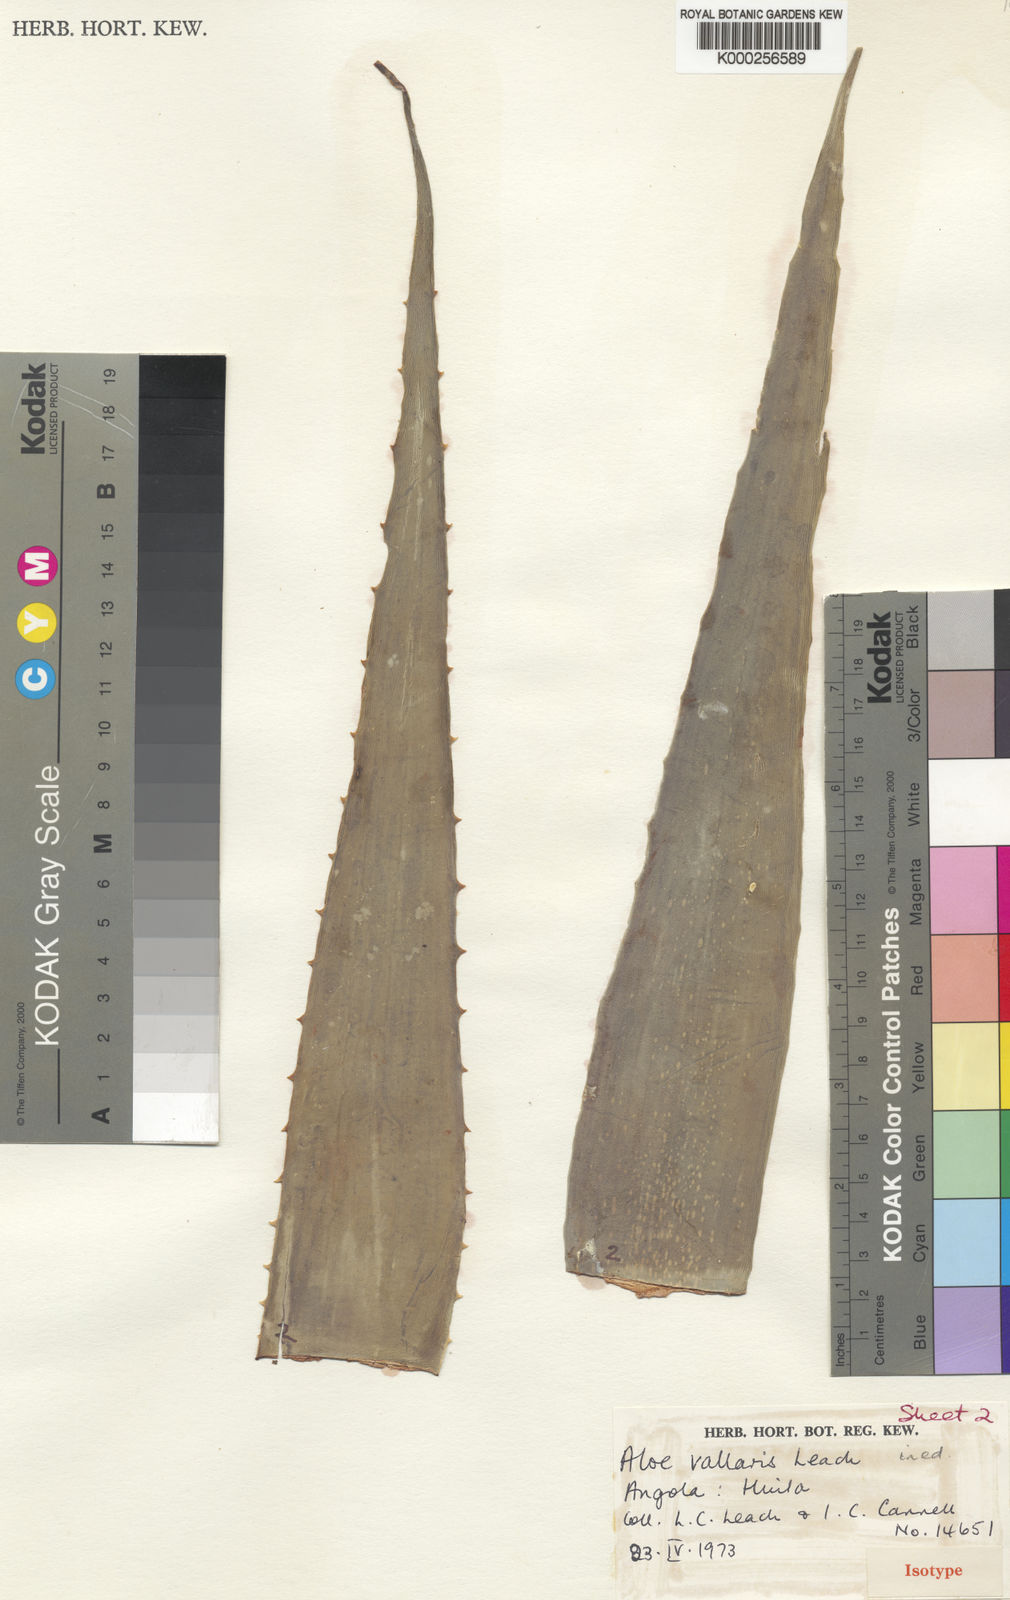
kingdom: Plantae
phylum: Tracheophyta
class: Liliopsida
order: Asparagales
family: Asphodelaceae
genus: Aloe
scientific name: Aloe vallaris
